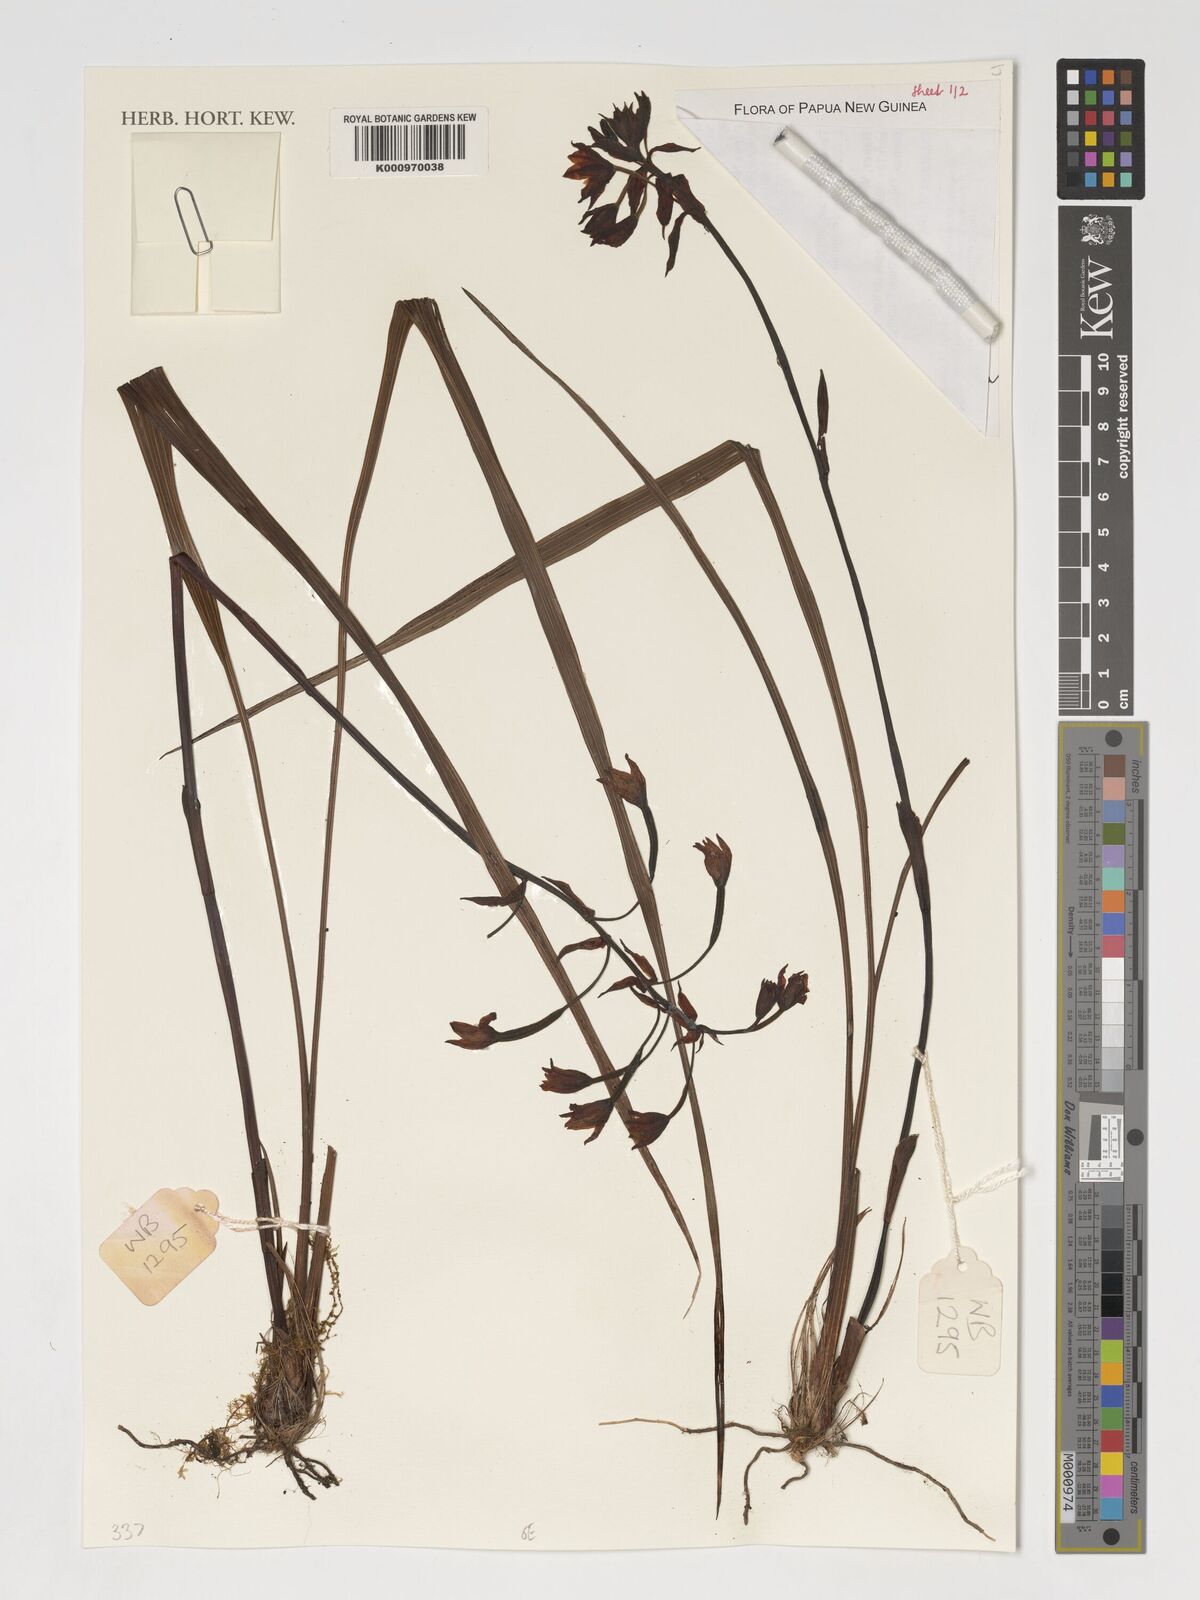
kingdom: Plantae
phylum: Tracheophyta
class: Liliopsida
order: Asparagales
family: Orchidaceae
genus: Spathoglottis
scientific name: Spathoglottis parviflora
